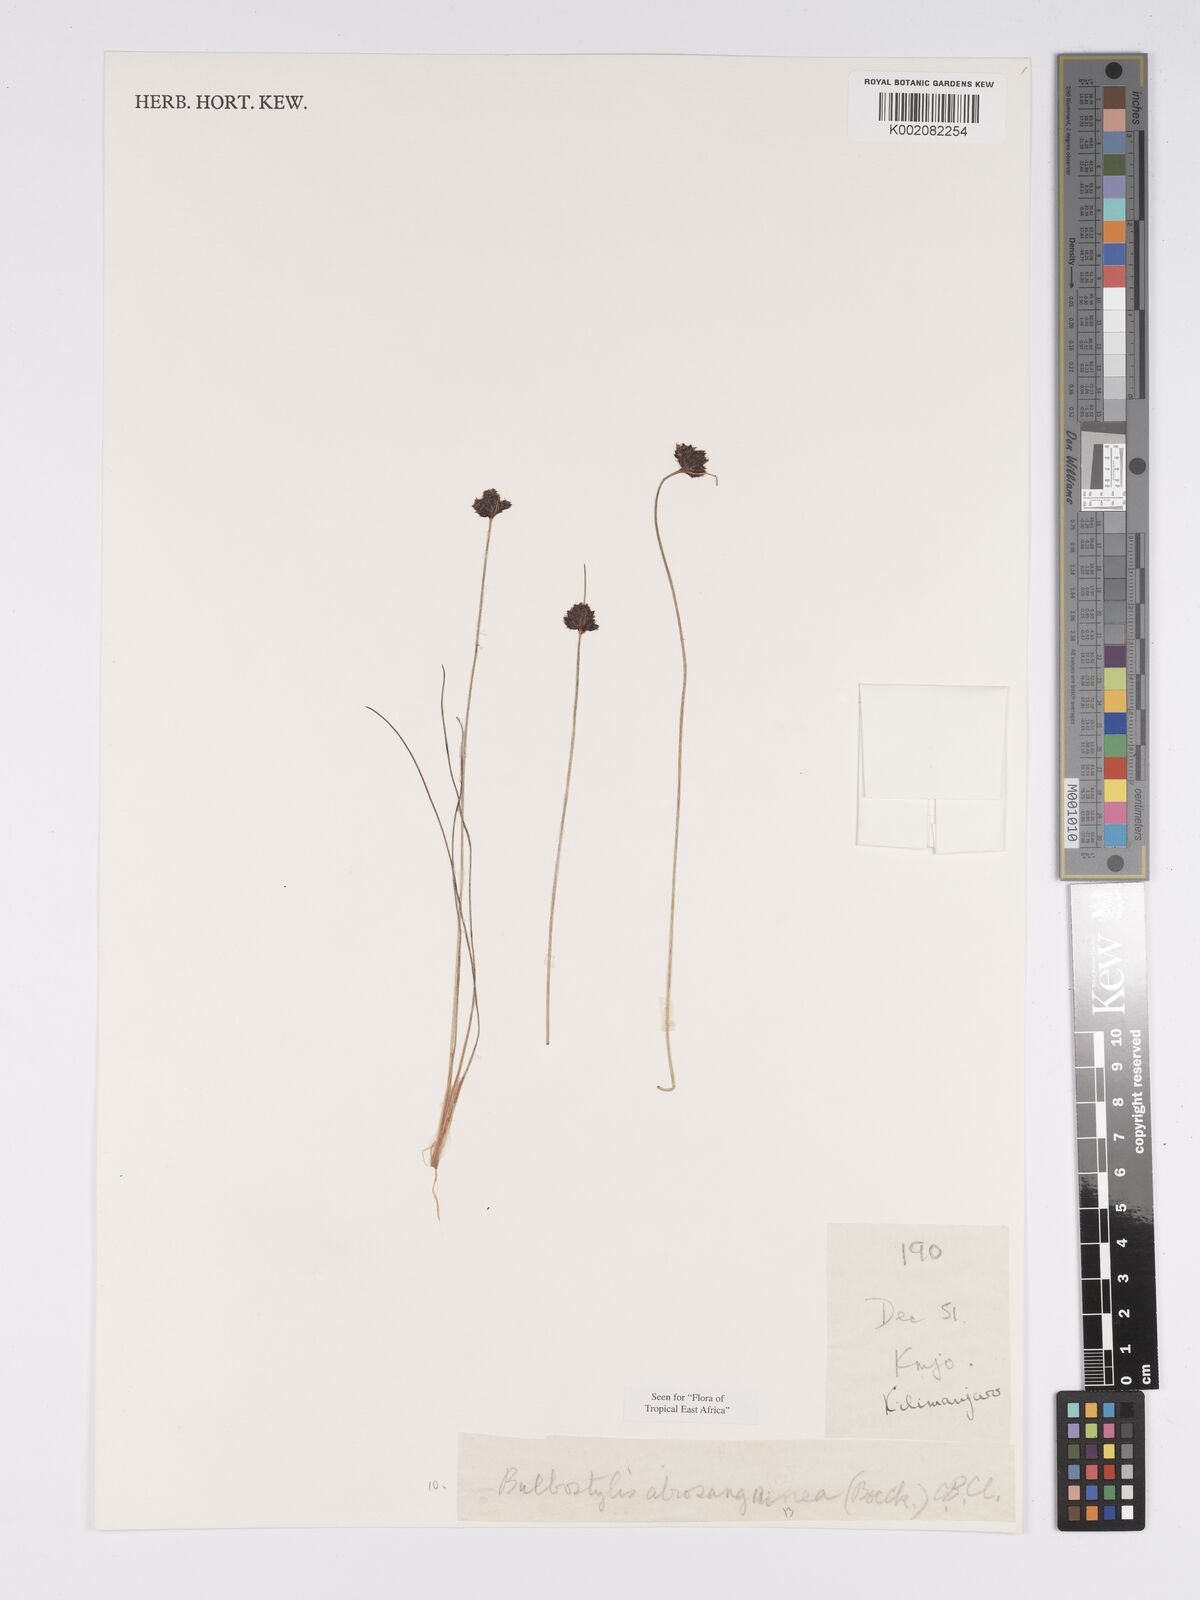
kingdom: Plantae
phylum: Tracheophyta
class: Liliopsida
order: Poales
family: Cyperaceae
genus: Bulbostylis
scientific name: Bulbostylis atrosanguinea
